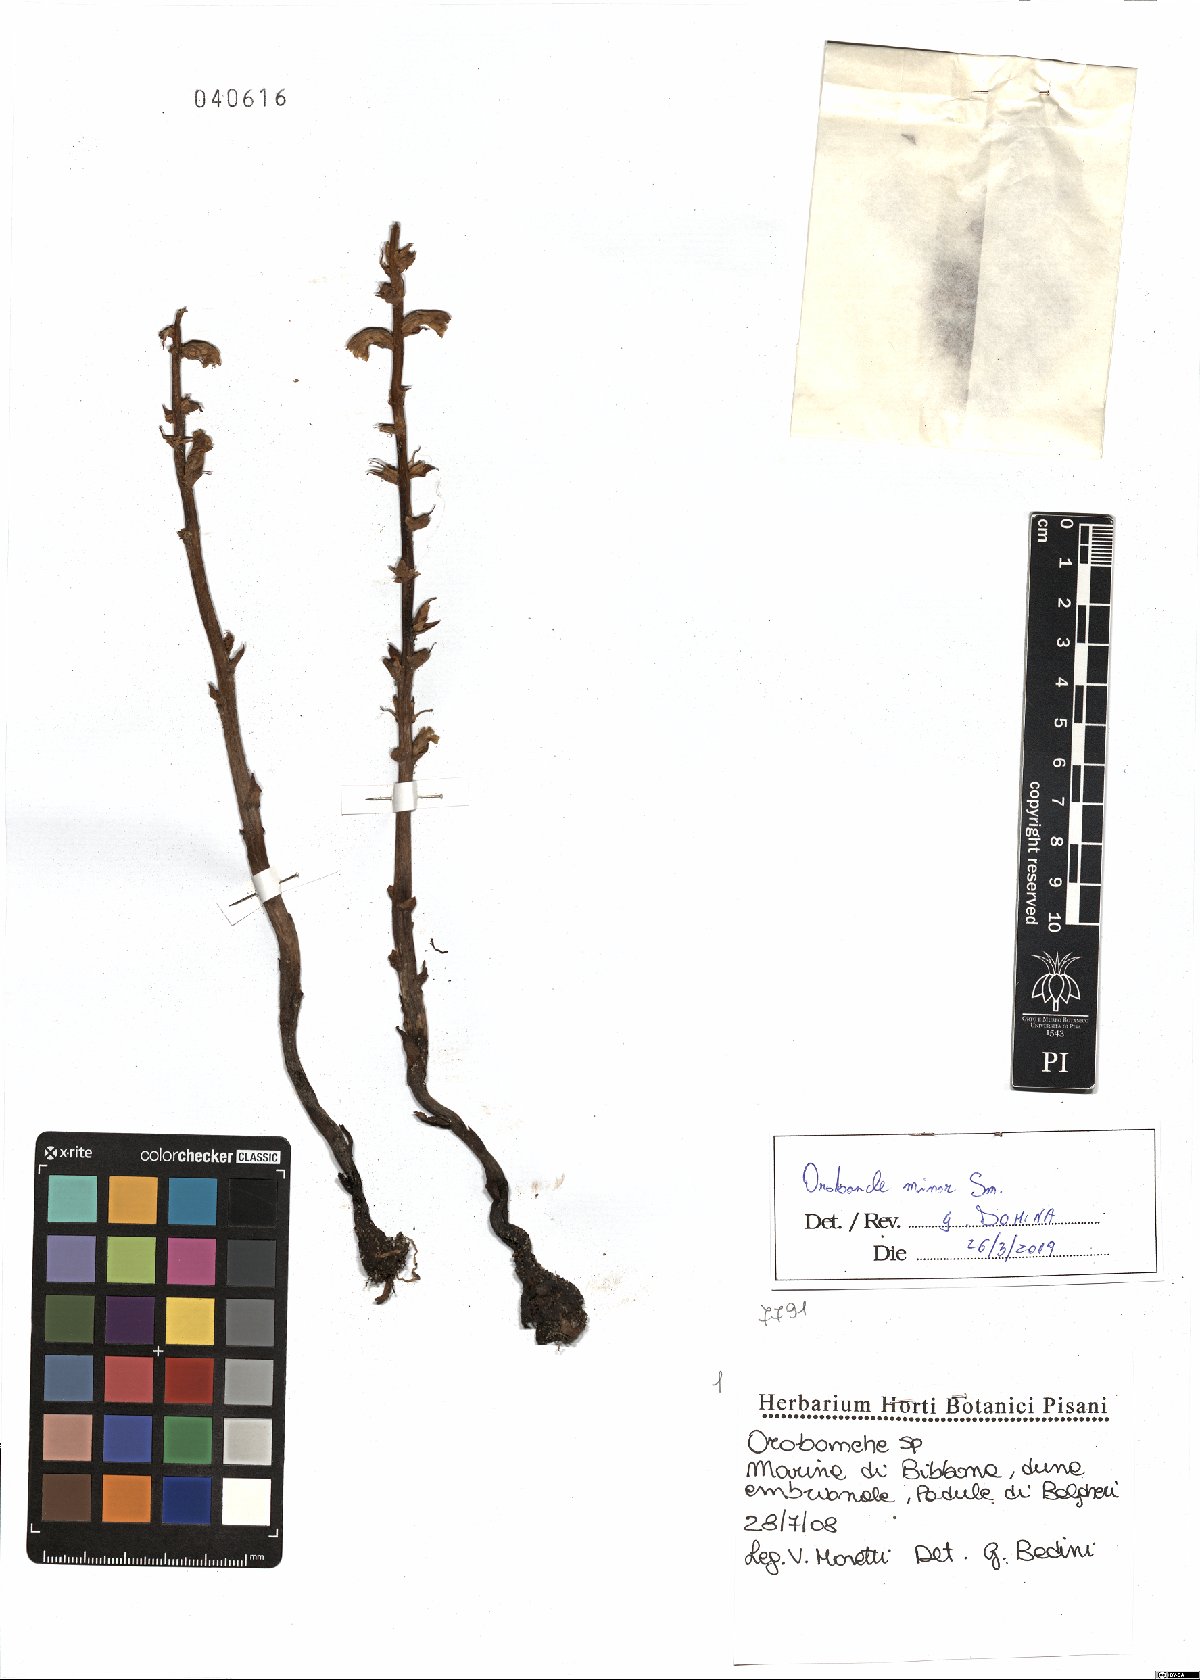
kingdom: Plantae
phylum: Tracheophyta
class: Magnoliopsida
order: Lamiales
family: Orobanchaceae
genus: Orobanche
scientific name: Orobanche minor
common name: Common broomrape
